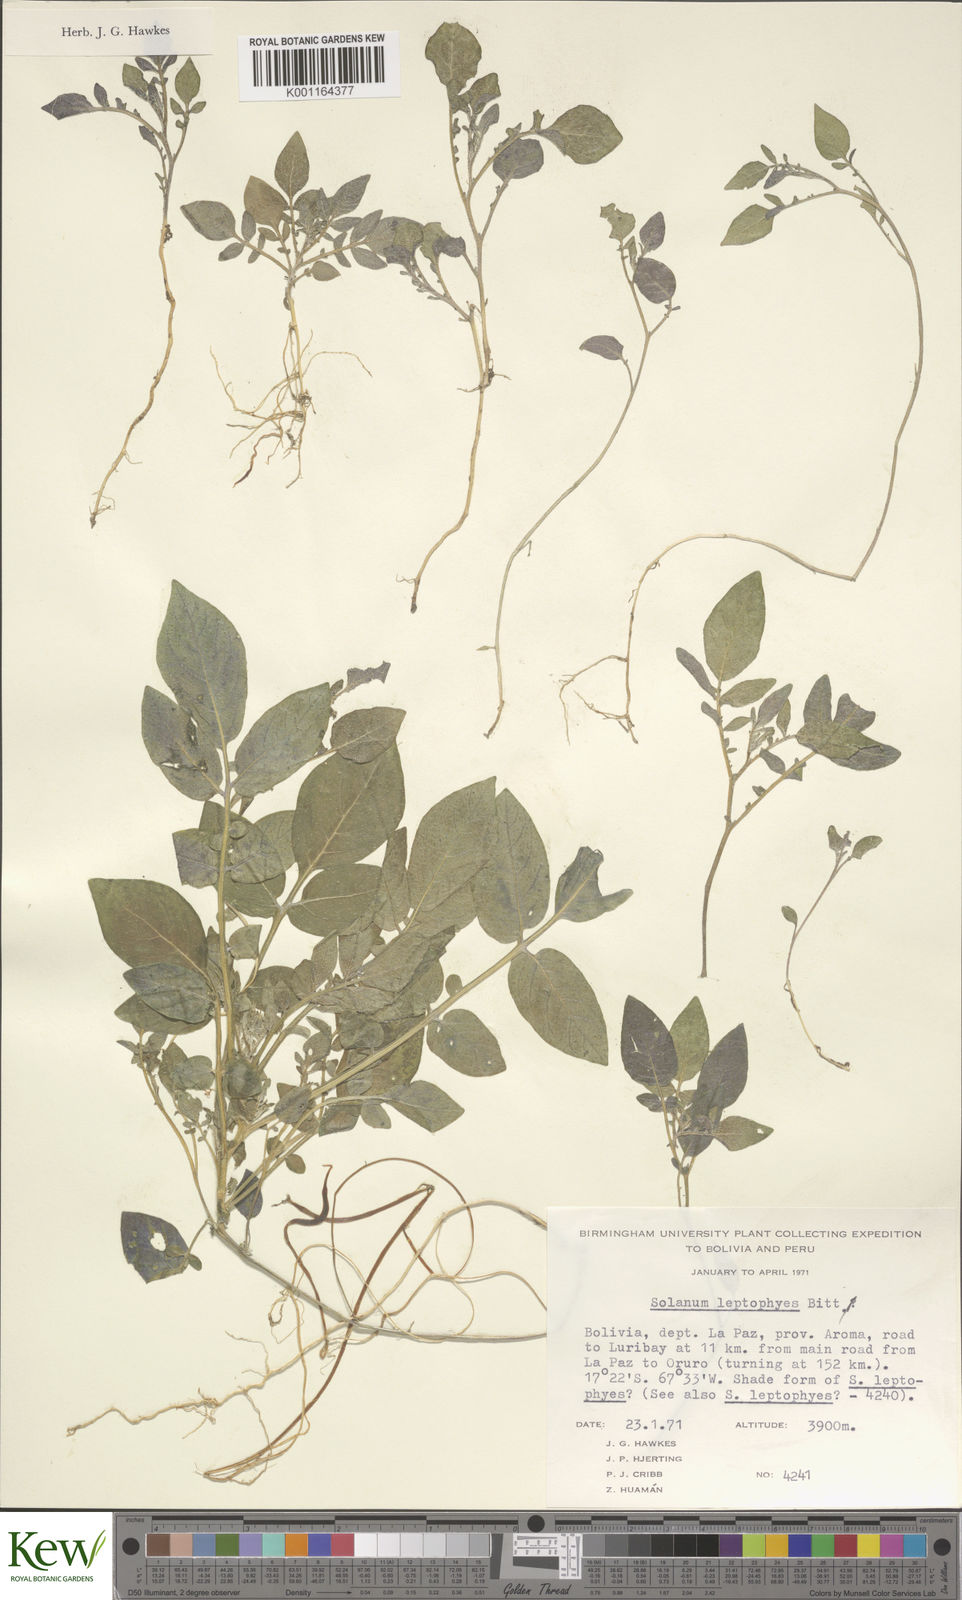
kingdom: Plantae
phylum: Tracheophyta
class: Magnoliopsida
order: Solanales
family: Solanaceae
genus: Solanum
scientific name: Solanum brevicaule
